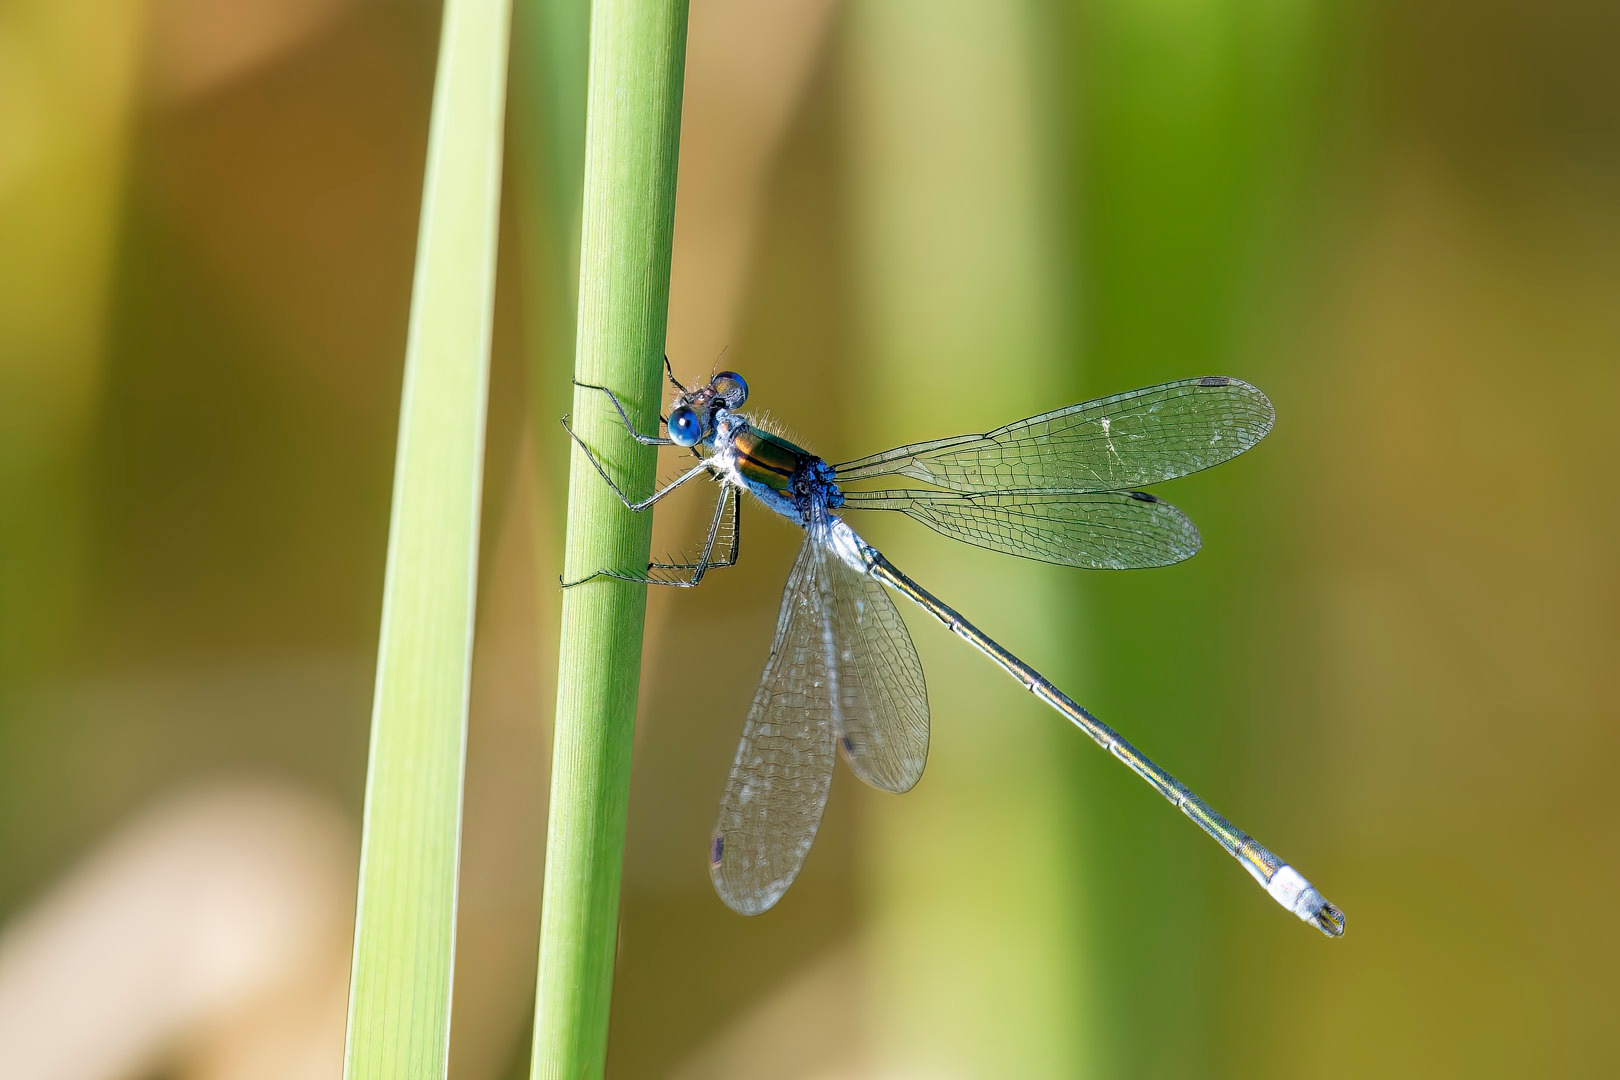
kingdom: Animalia
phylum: Arthropoda
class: Insecta
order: Odonata
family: Lestidae
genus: Lestes
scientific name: Lestes sponsa
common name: Almindelig kobbervandnymfe
